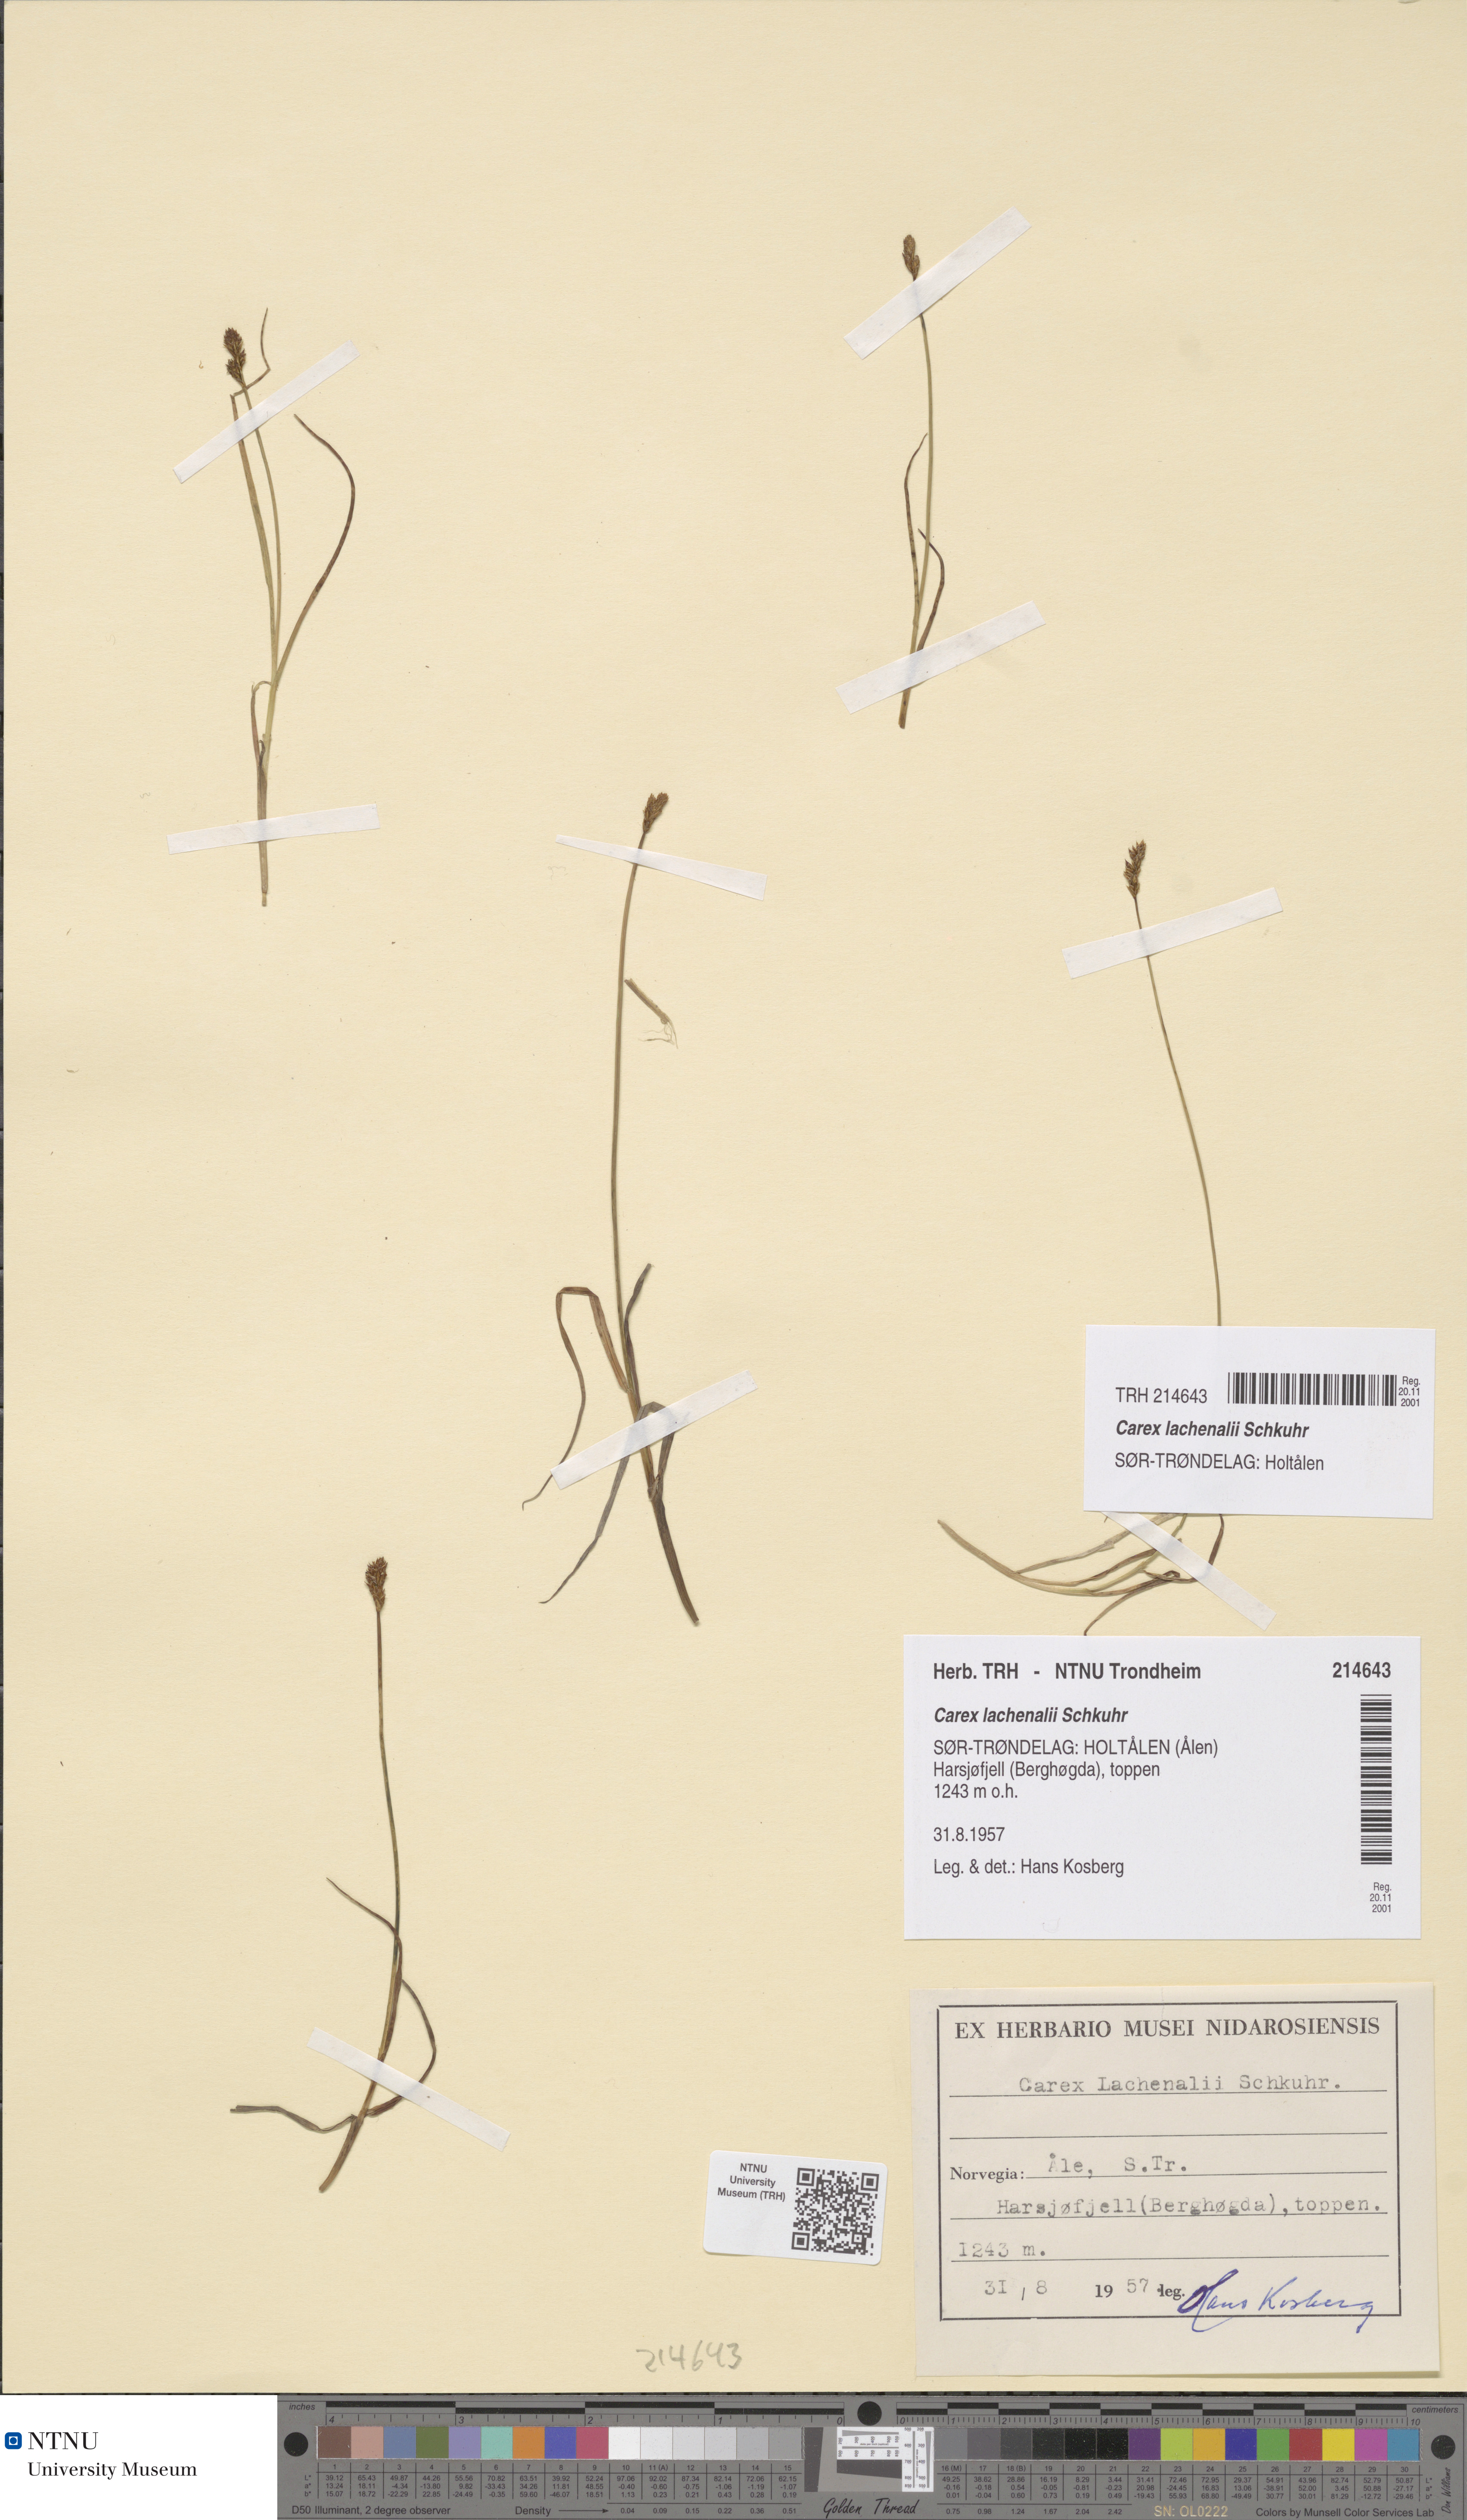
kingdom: Plantae
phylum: Tracheophyta
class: Liliopsida
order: Poales
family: Cyperaceae
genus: Carex
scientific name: Carex lachenalii
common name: Hare's-foot sedge
